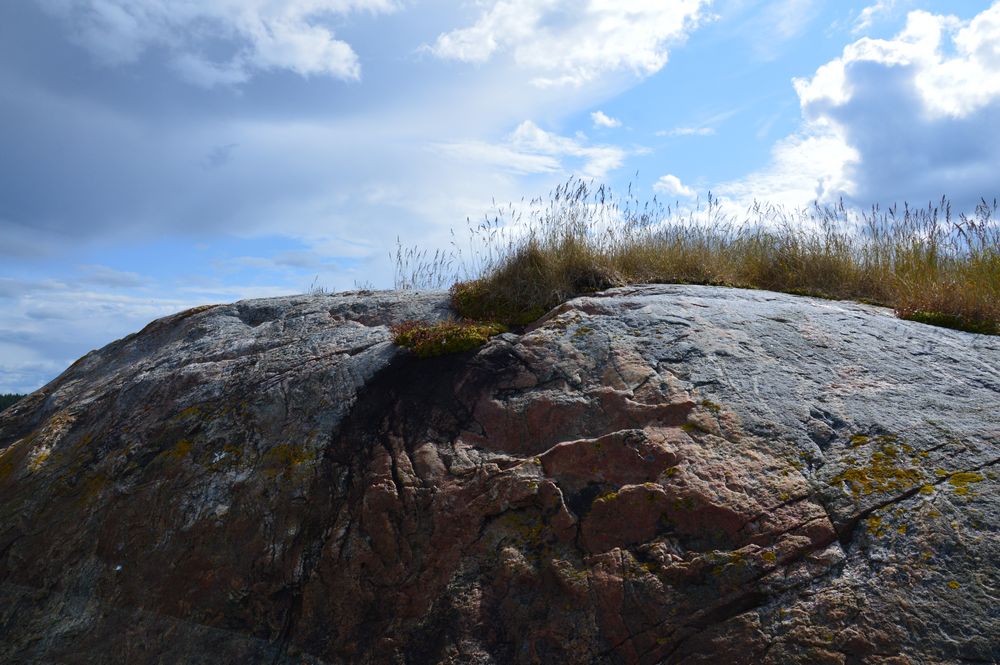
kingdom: Plantae
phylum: Tracheophyta
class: Magnoliopsida
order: Saxifragales
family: Saxifragaceae
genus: Saxifraga
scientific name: Saxifraga cespitosa
